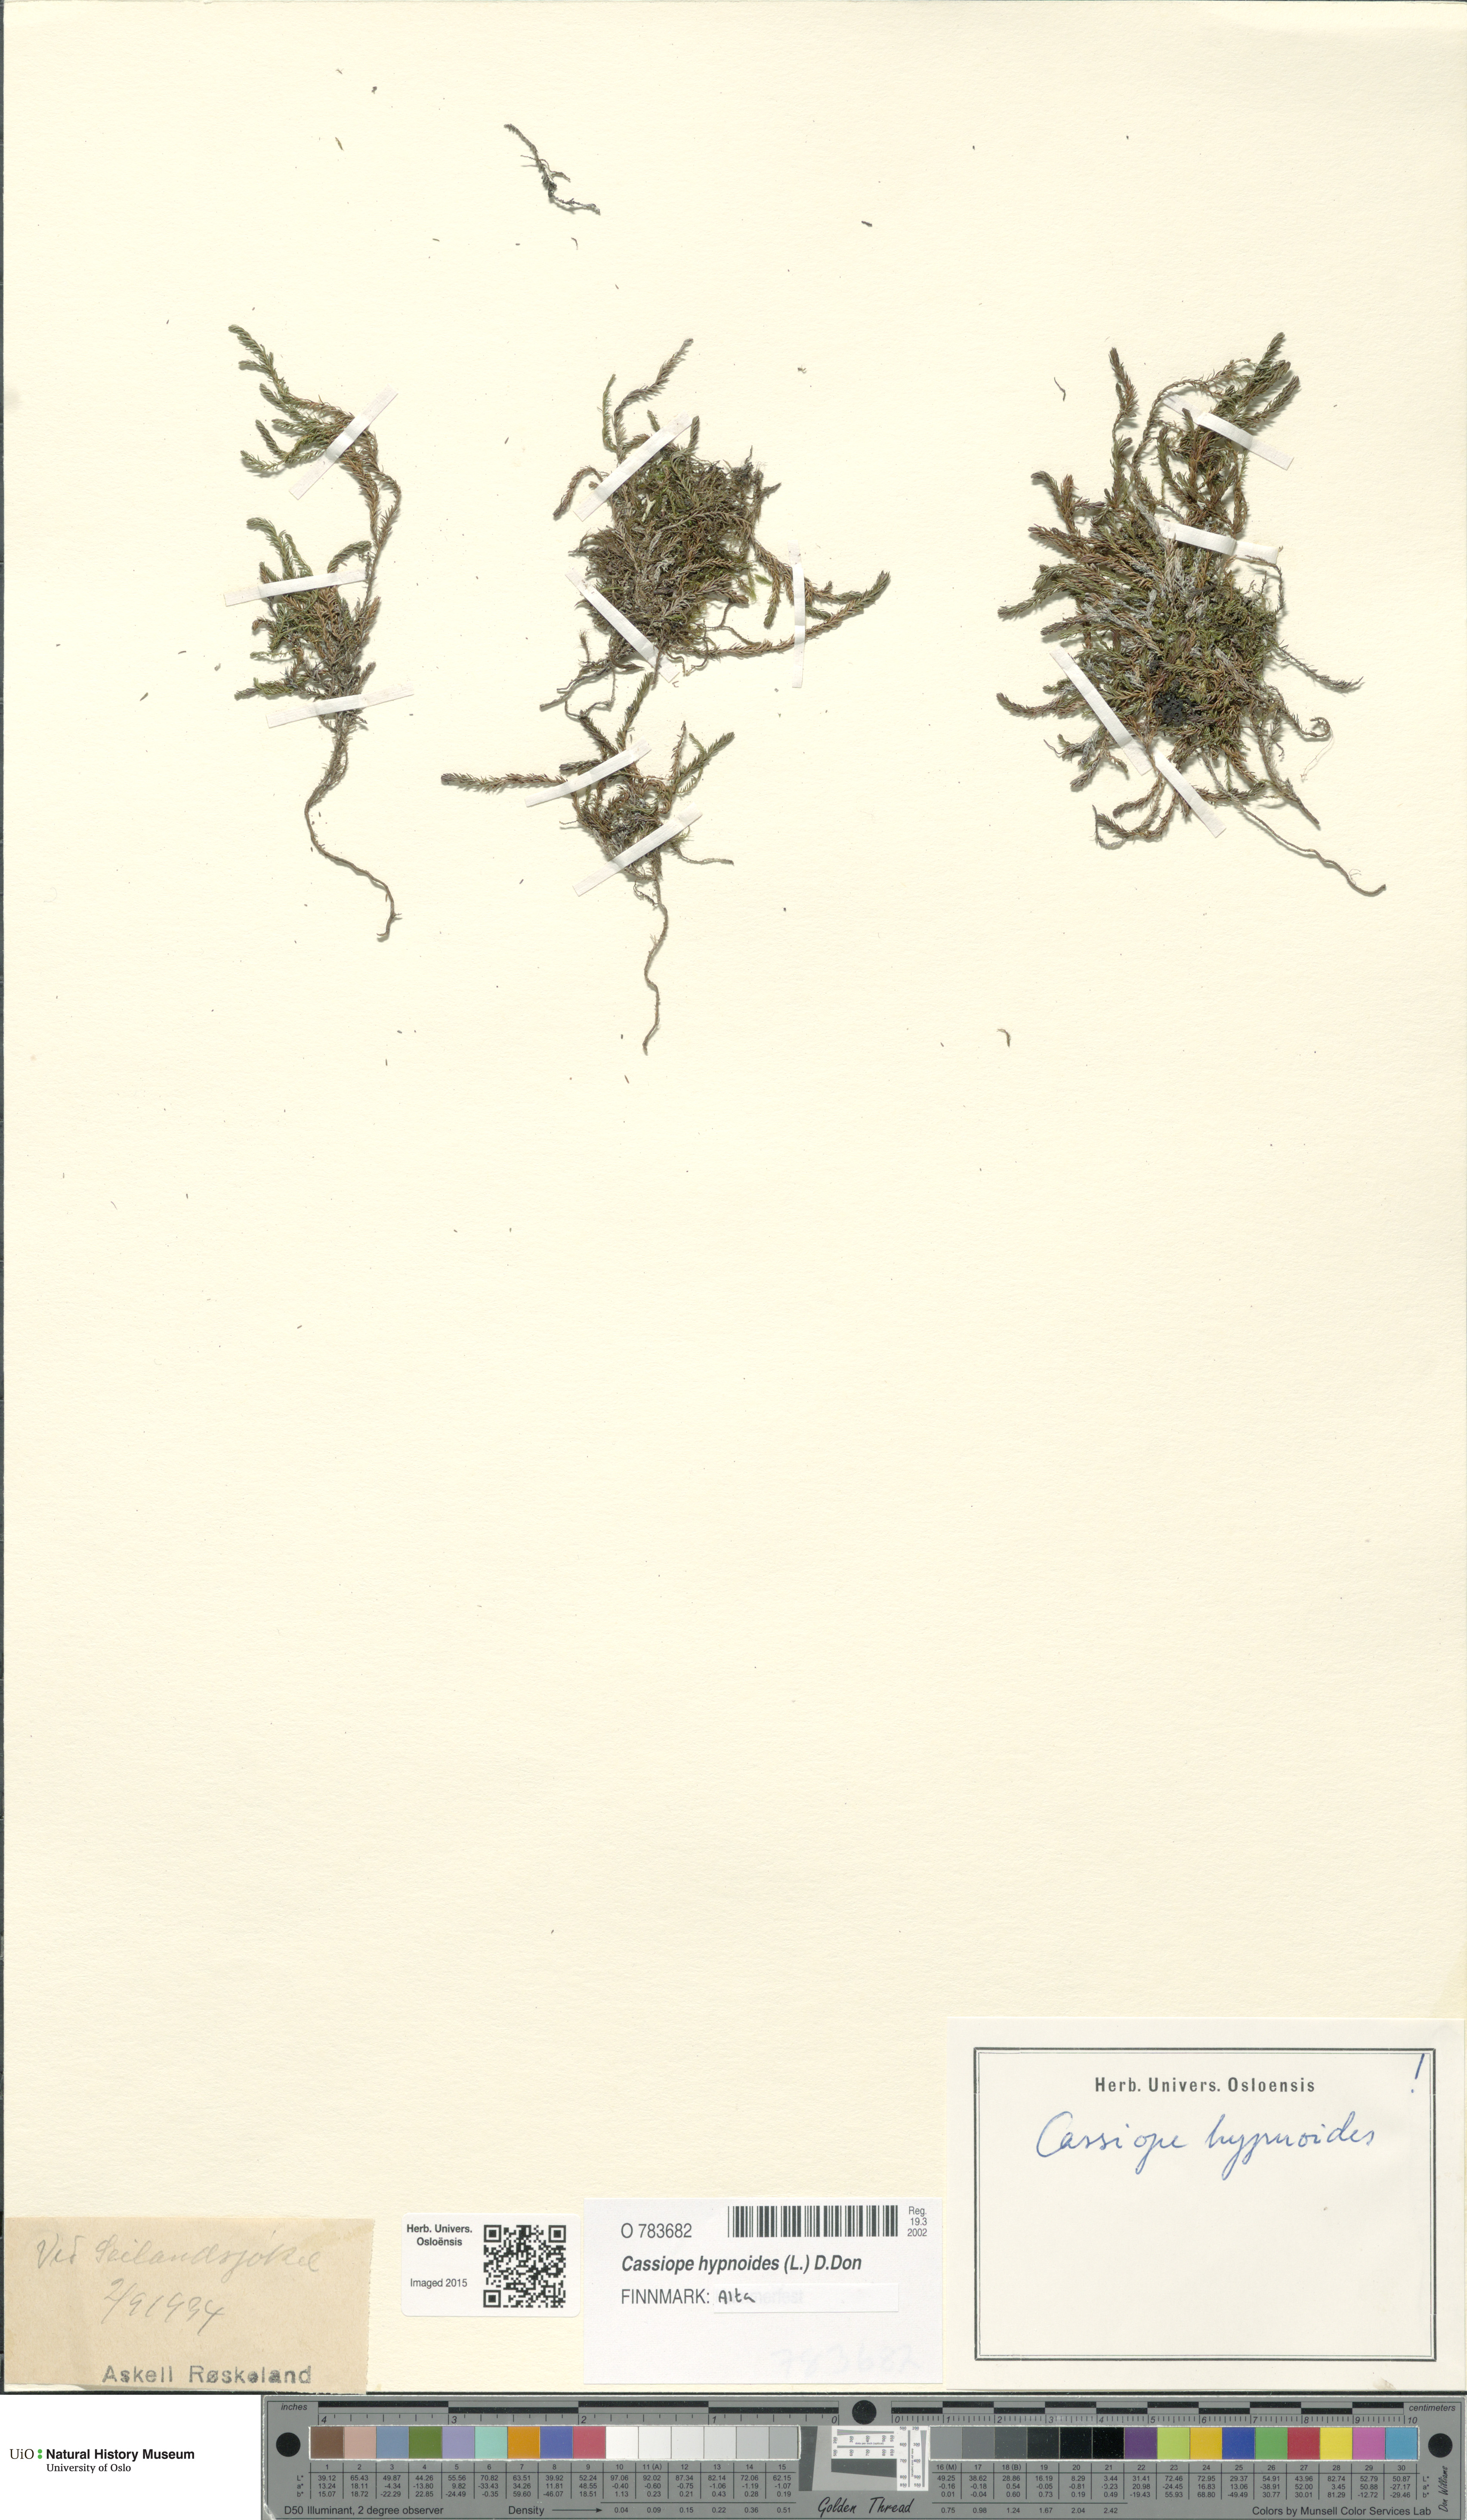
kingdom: Plantae
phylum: Tracheophyta
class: Magnoliopsida
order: Ericales
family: Ericaceae
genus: Harrimanella
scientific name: Harrimanella hypnoides
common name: Moss bell heather
